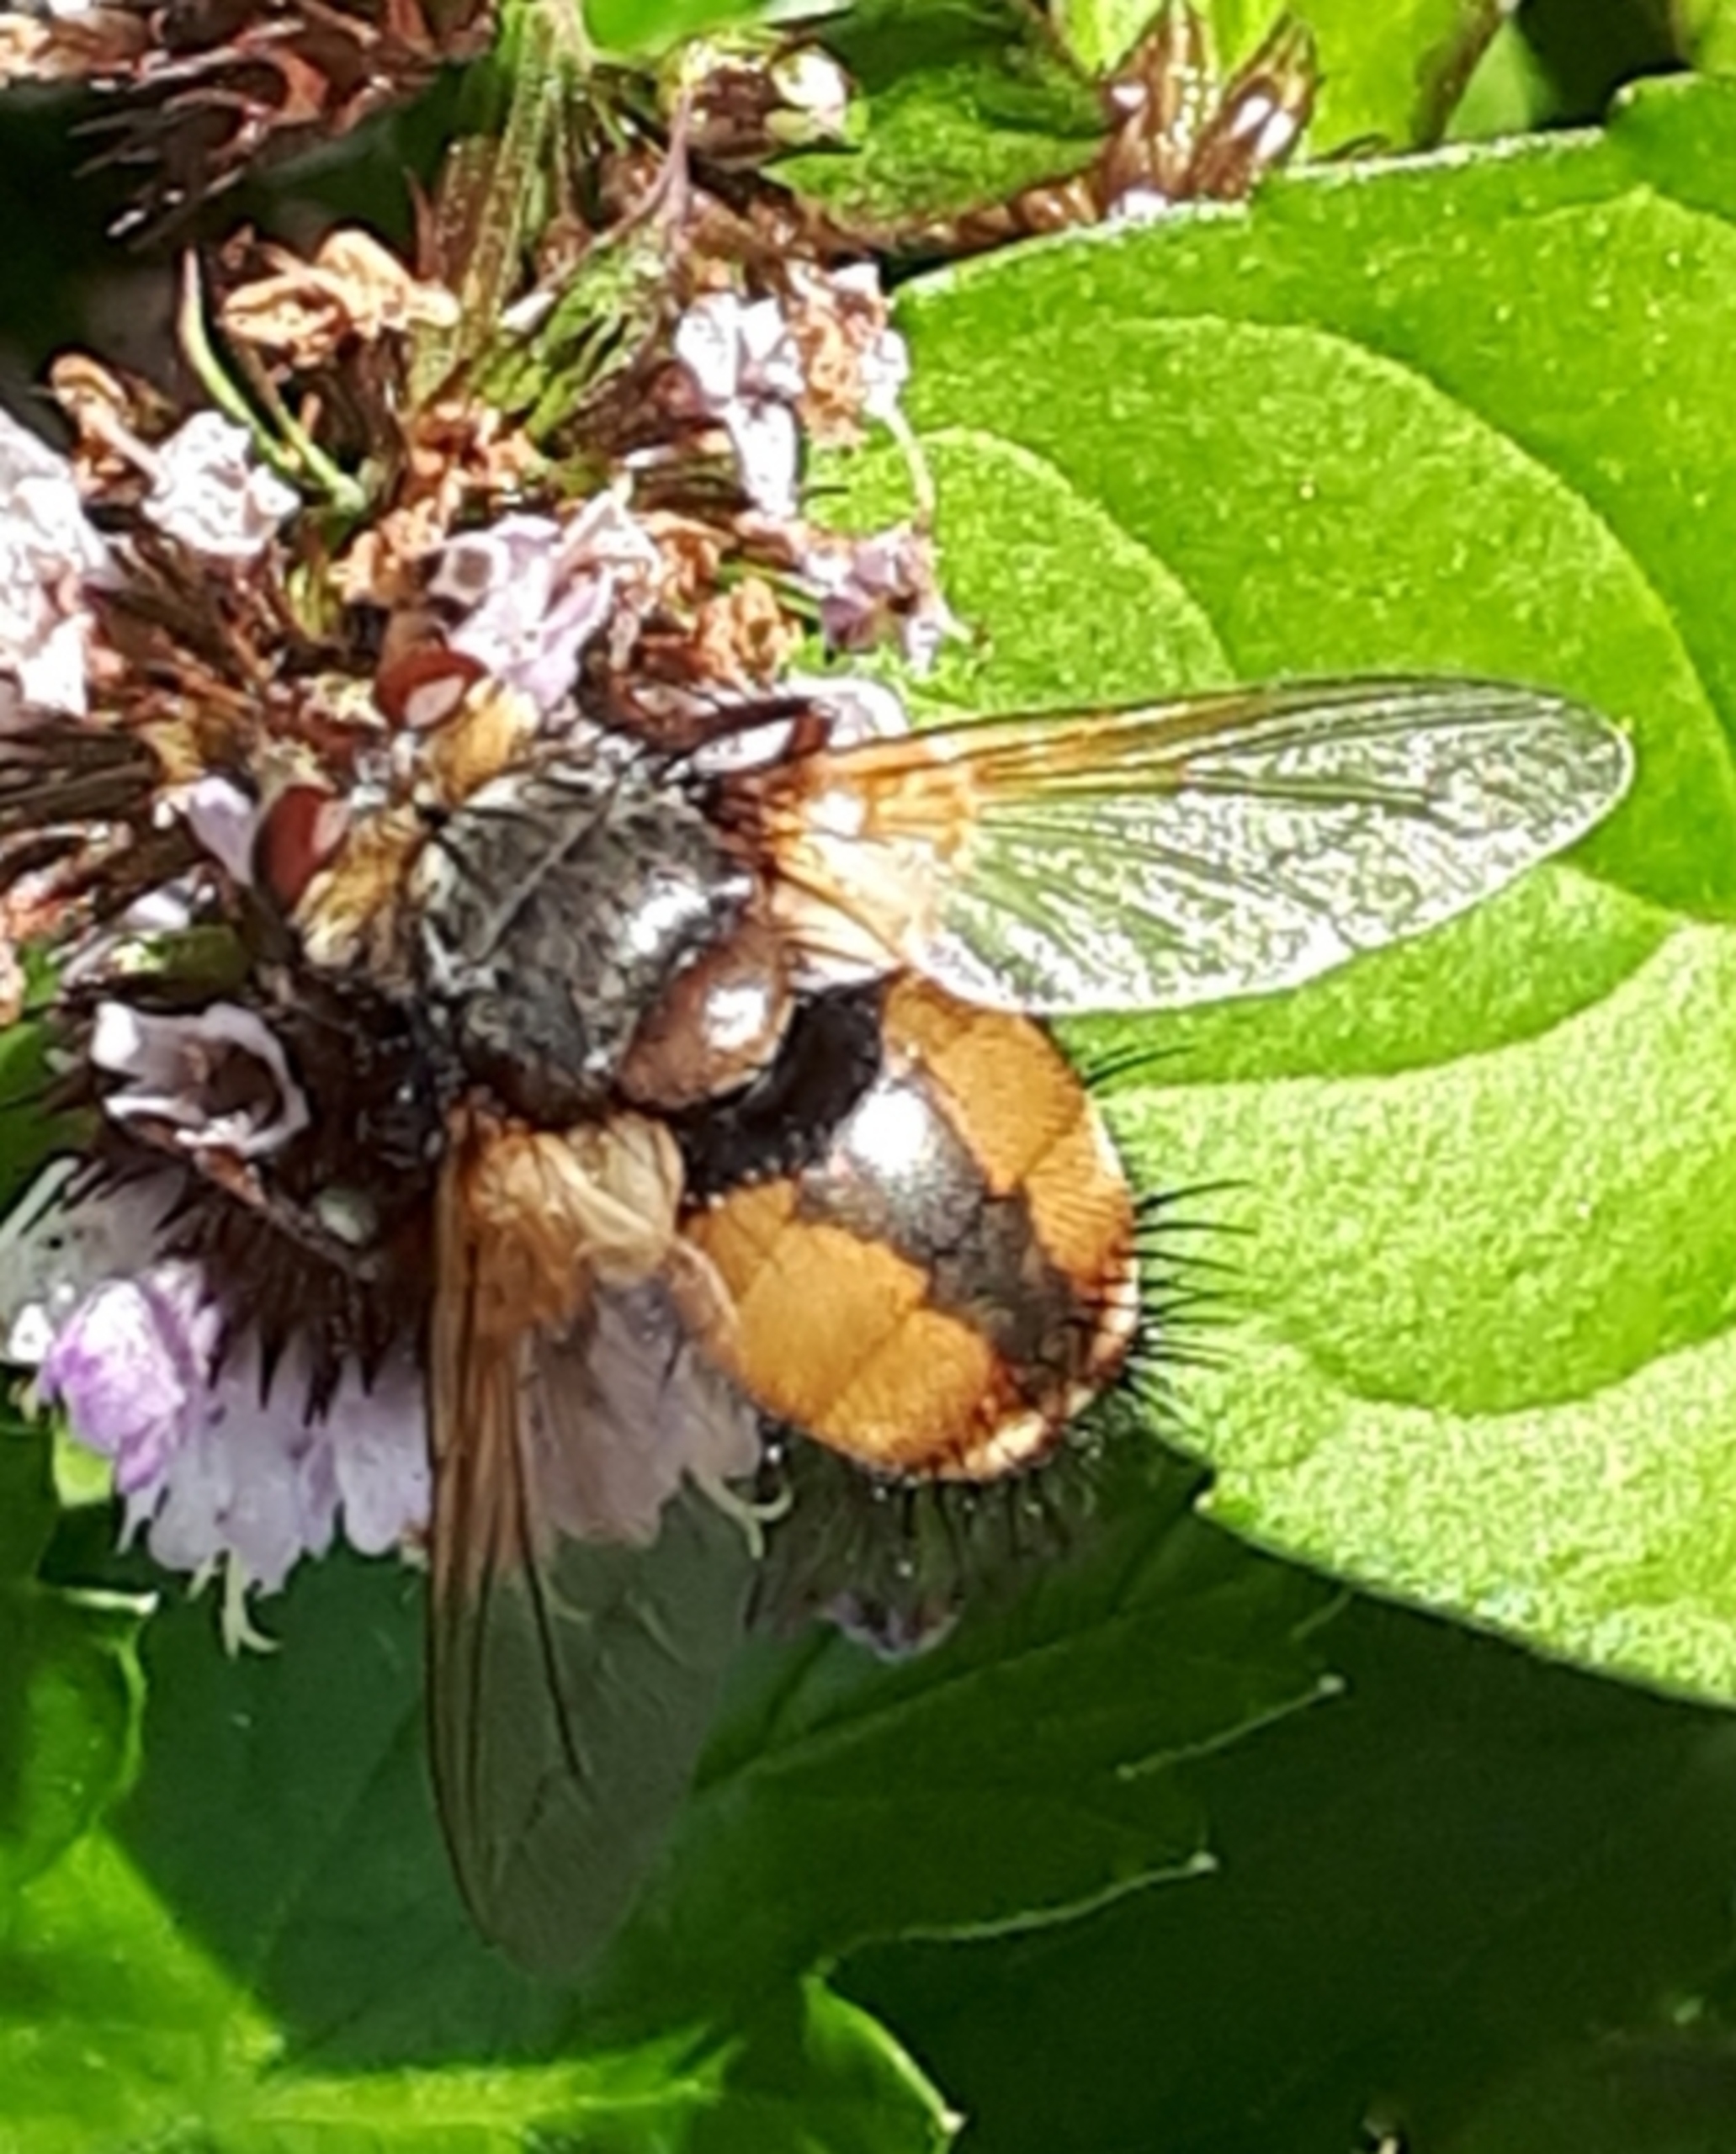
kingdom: Animalia
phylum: Arthropoda
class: Insecta
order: Diptera
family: Tachinidae
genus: Tachina
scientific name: Tachina fera
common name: Mellemfluen oskar
